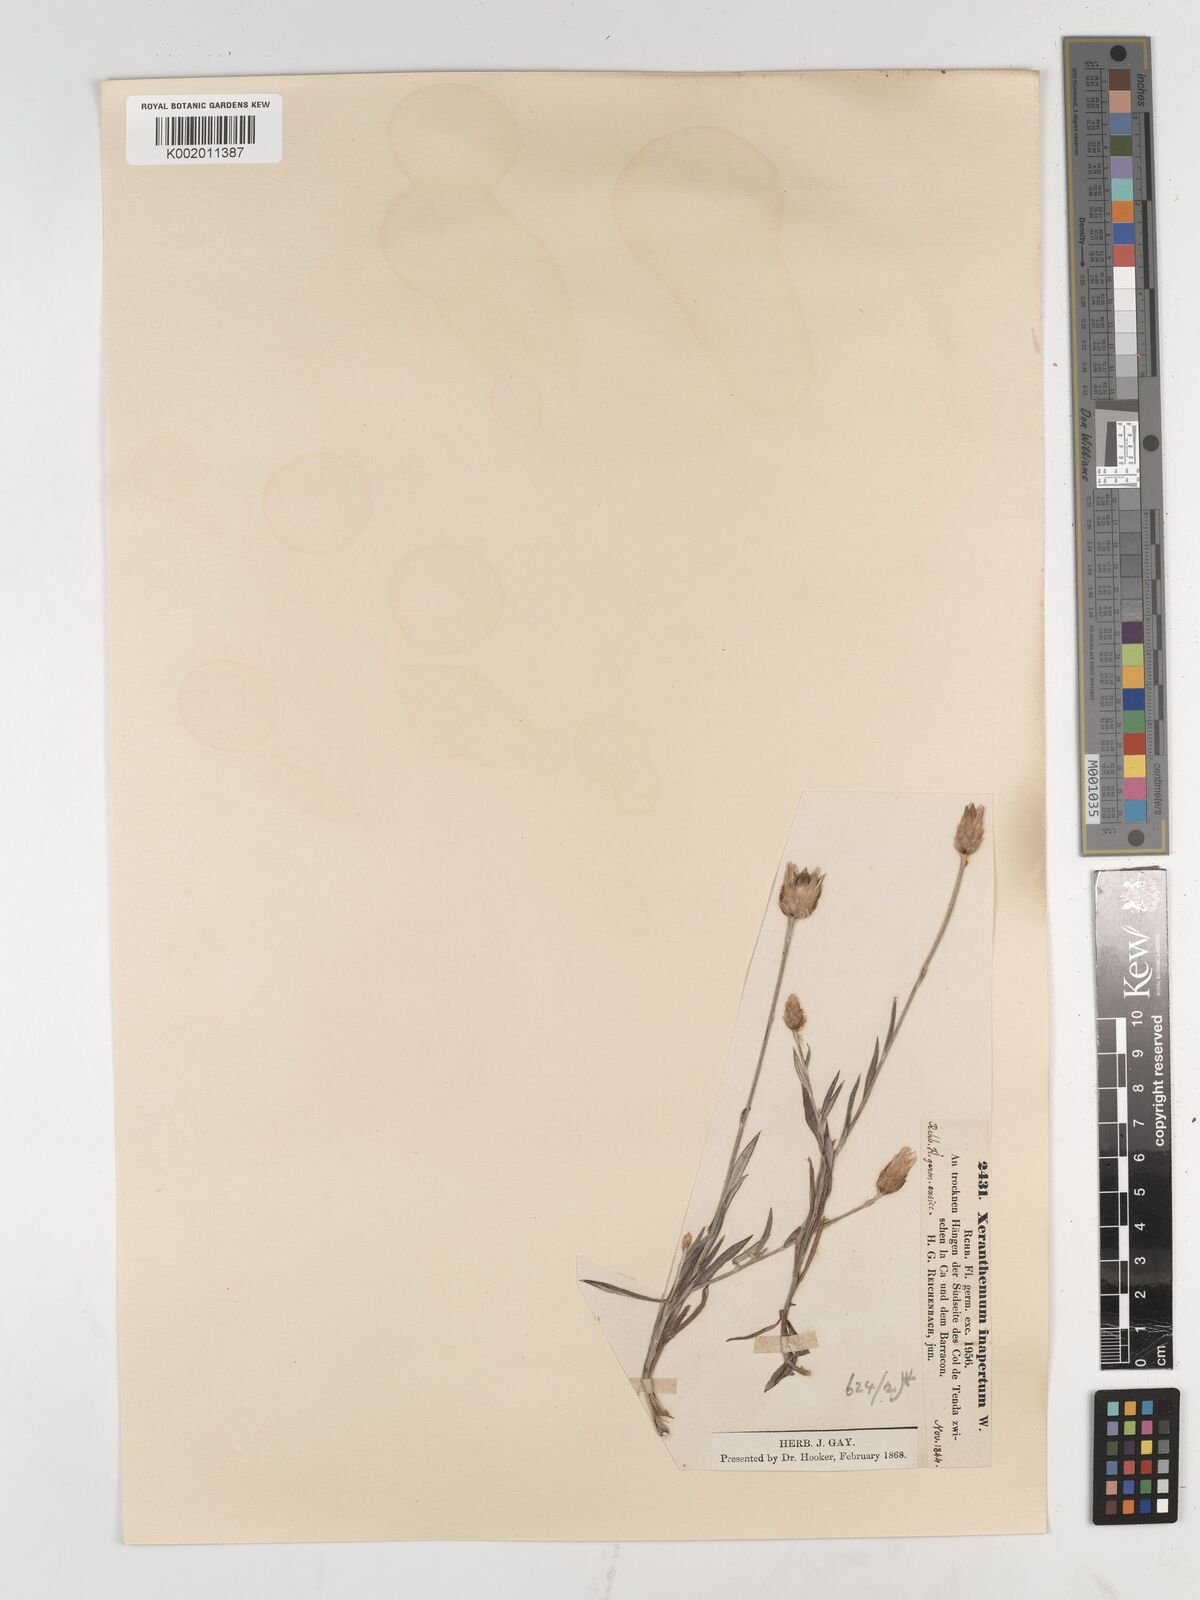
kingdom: Plantae
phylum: Tracheophyta
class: Magnoliopsida
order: Asterales
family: Asteraceae
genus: Xeranthemum
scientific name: Xeranthemum inapertum
